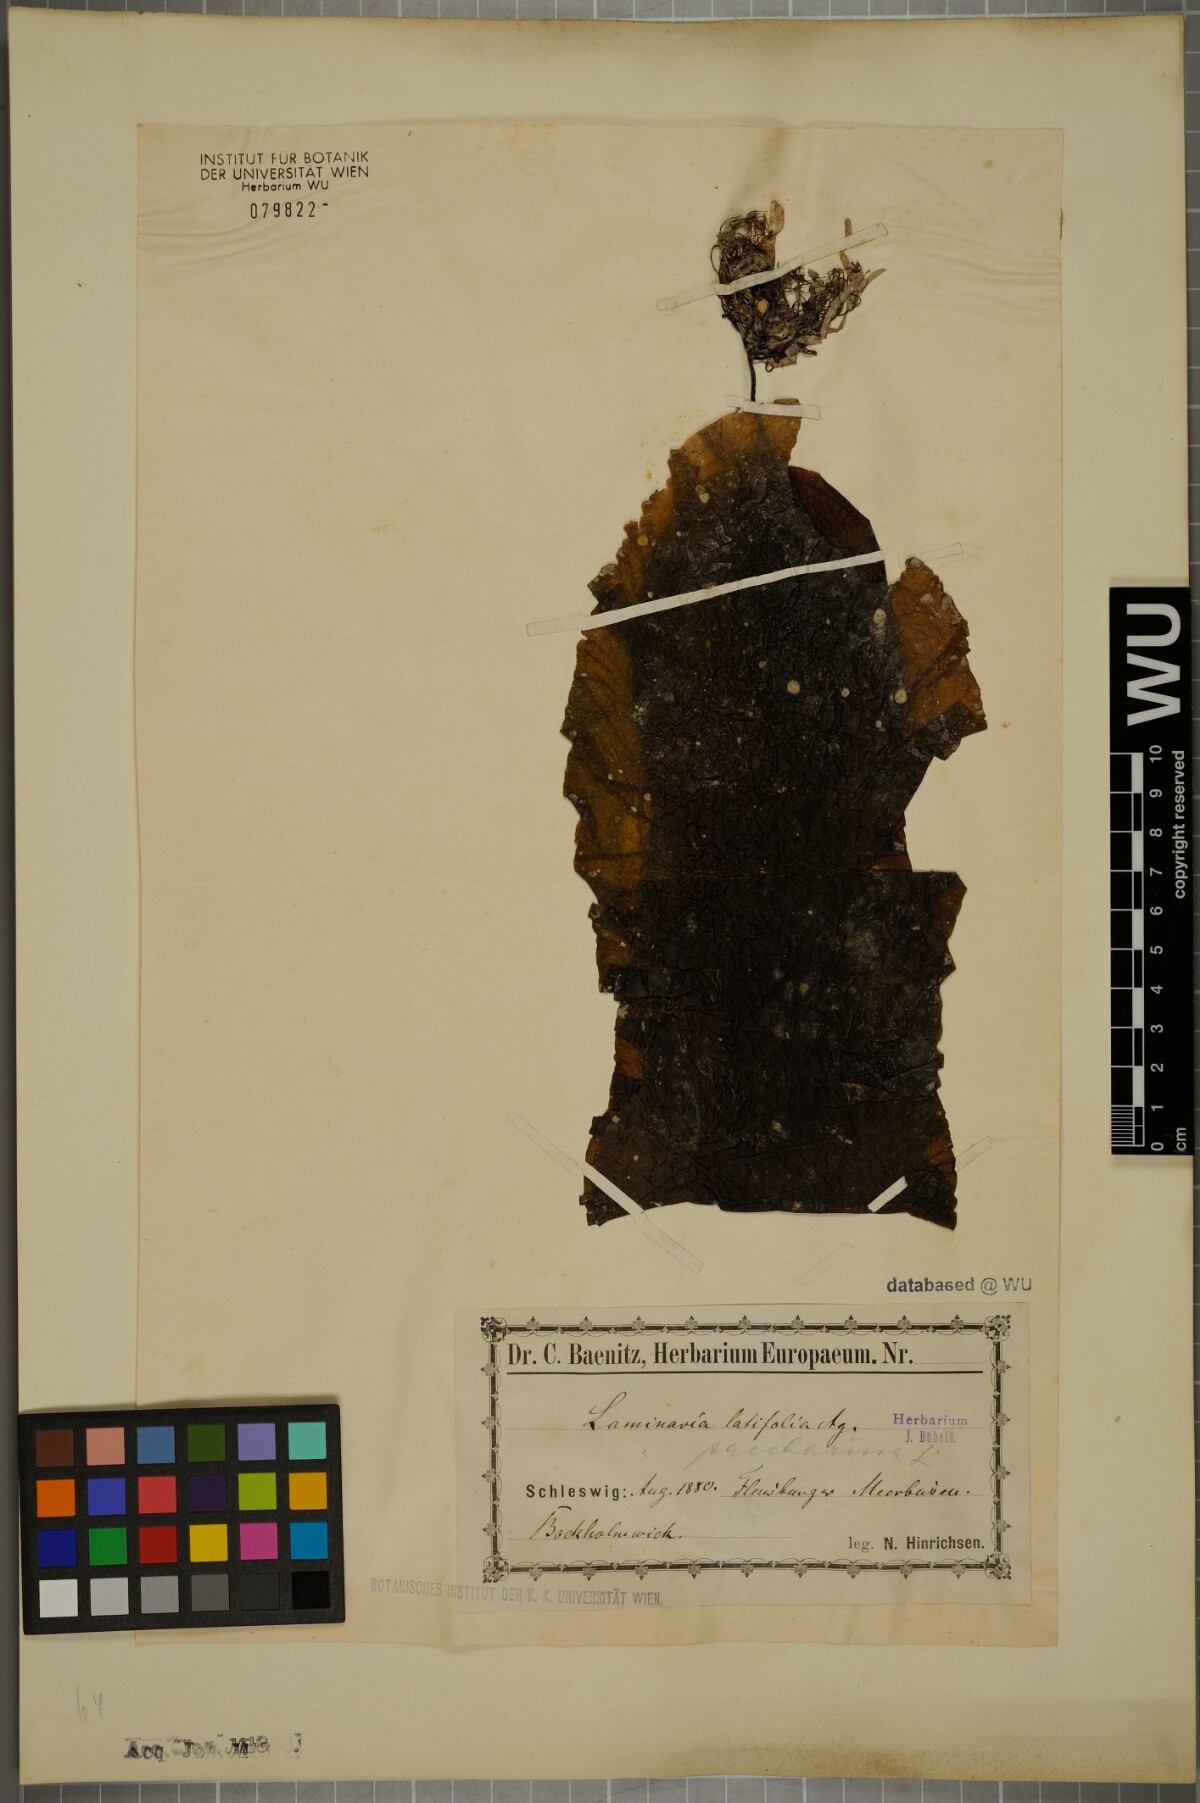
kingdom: Chromista
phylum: Ochrophyta
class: Phaeophyceae
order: Laminariales
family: Laminariaceae
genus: Saccharina
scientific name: Saccharina latissima
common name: Poor man's weather glass
